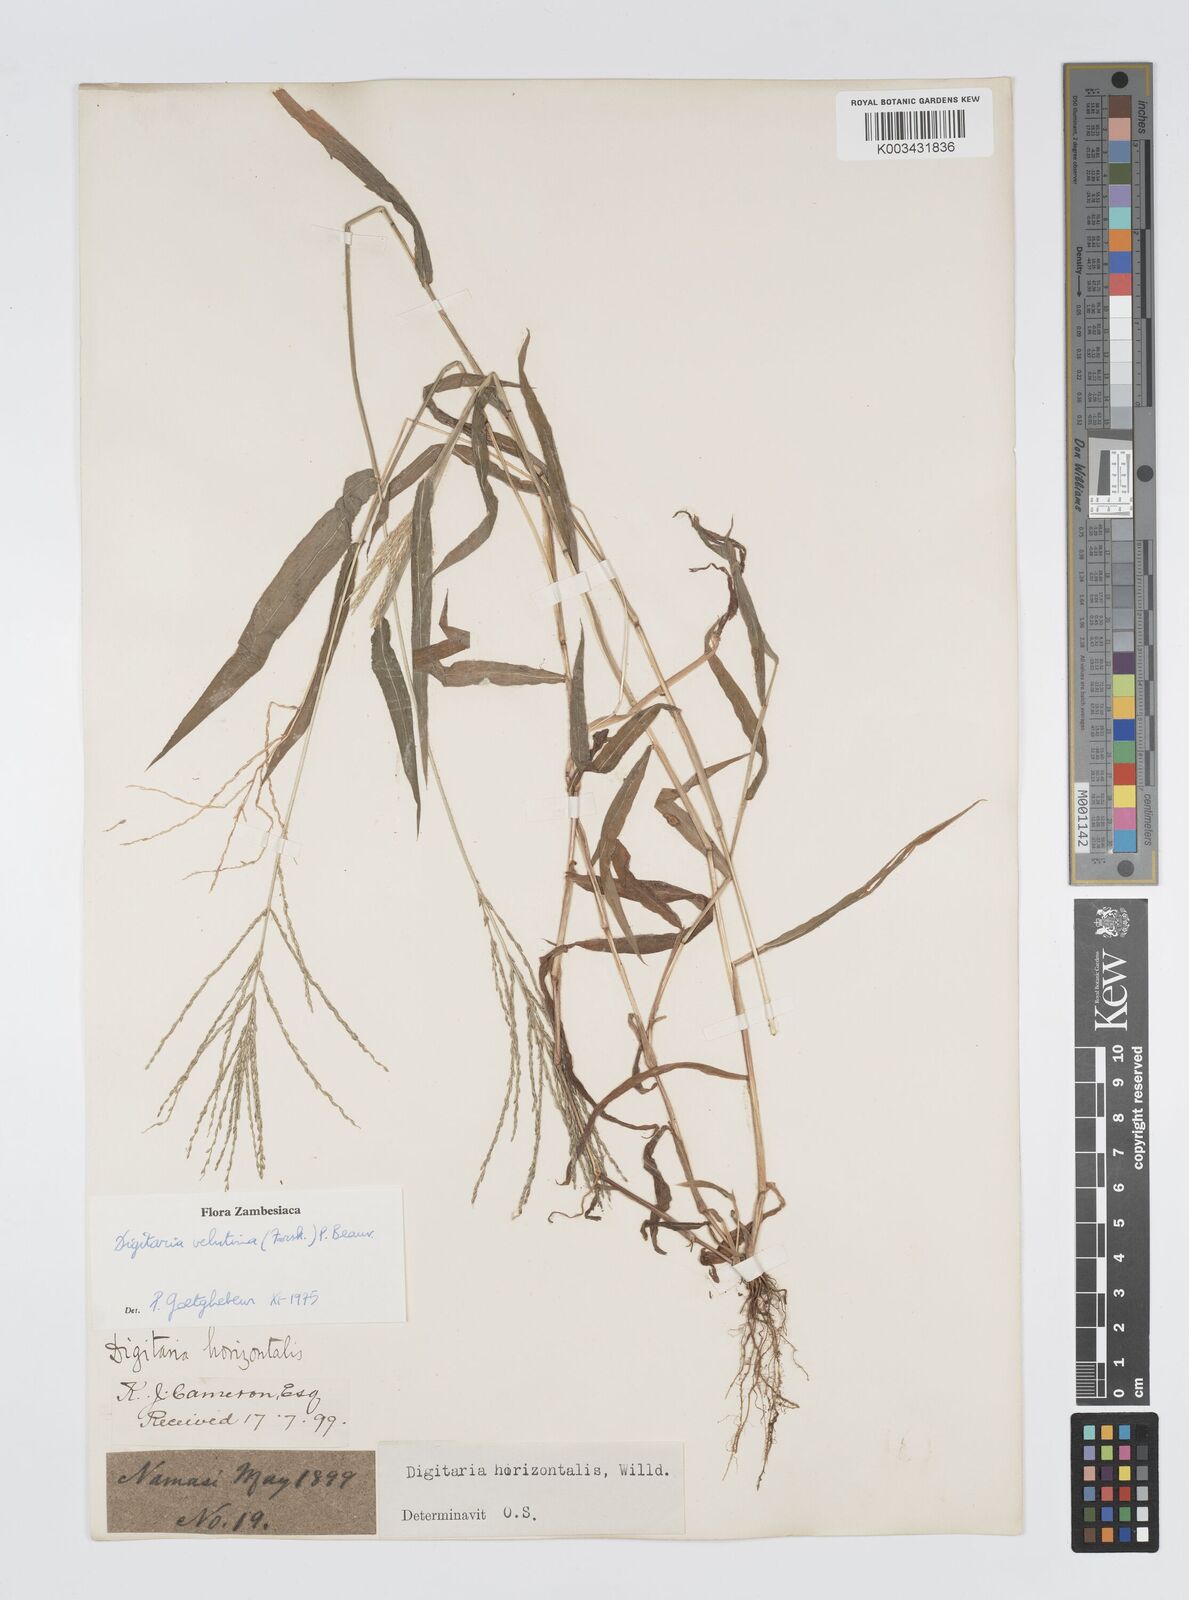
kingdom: Plantae
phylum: Tracheophyta
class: Liliopsida
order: Poales
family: Poaceae
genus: Digitaria
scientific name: Digitaria velutina
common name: Long-plume finger grass
